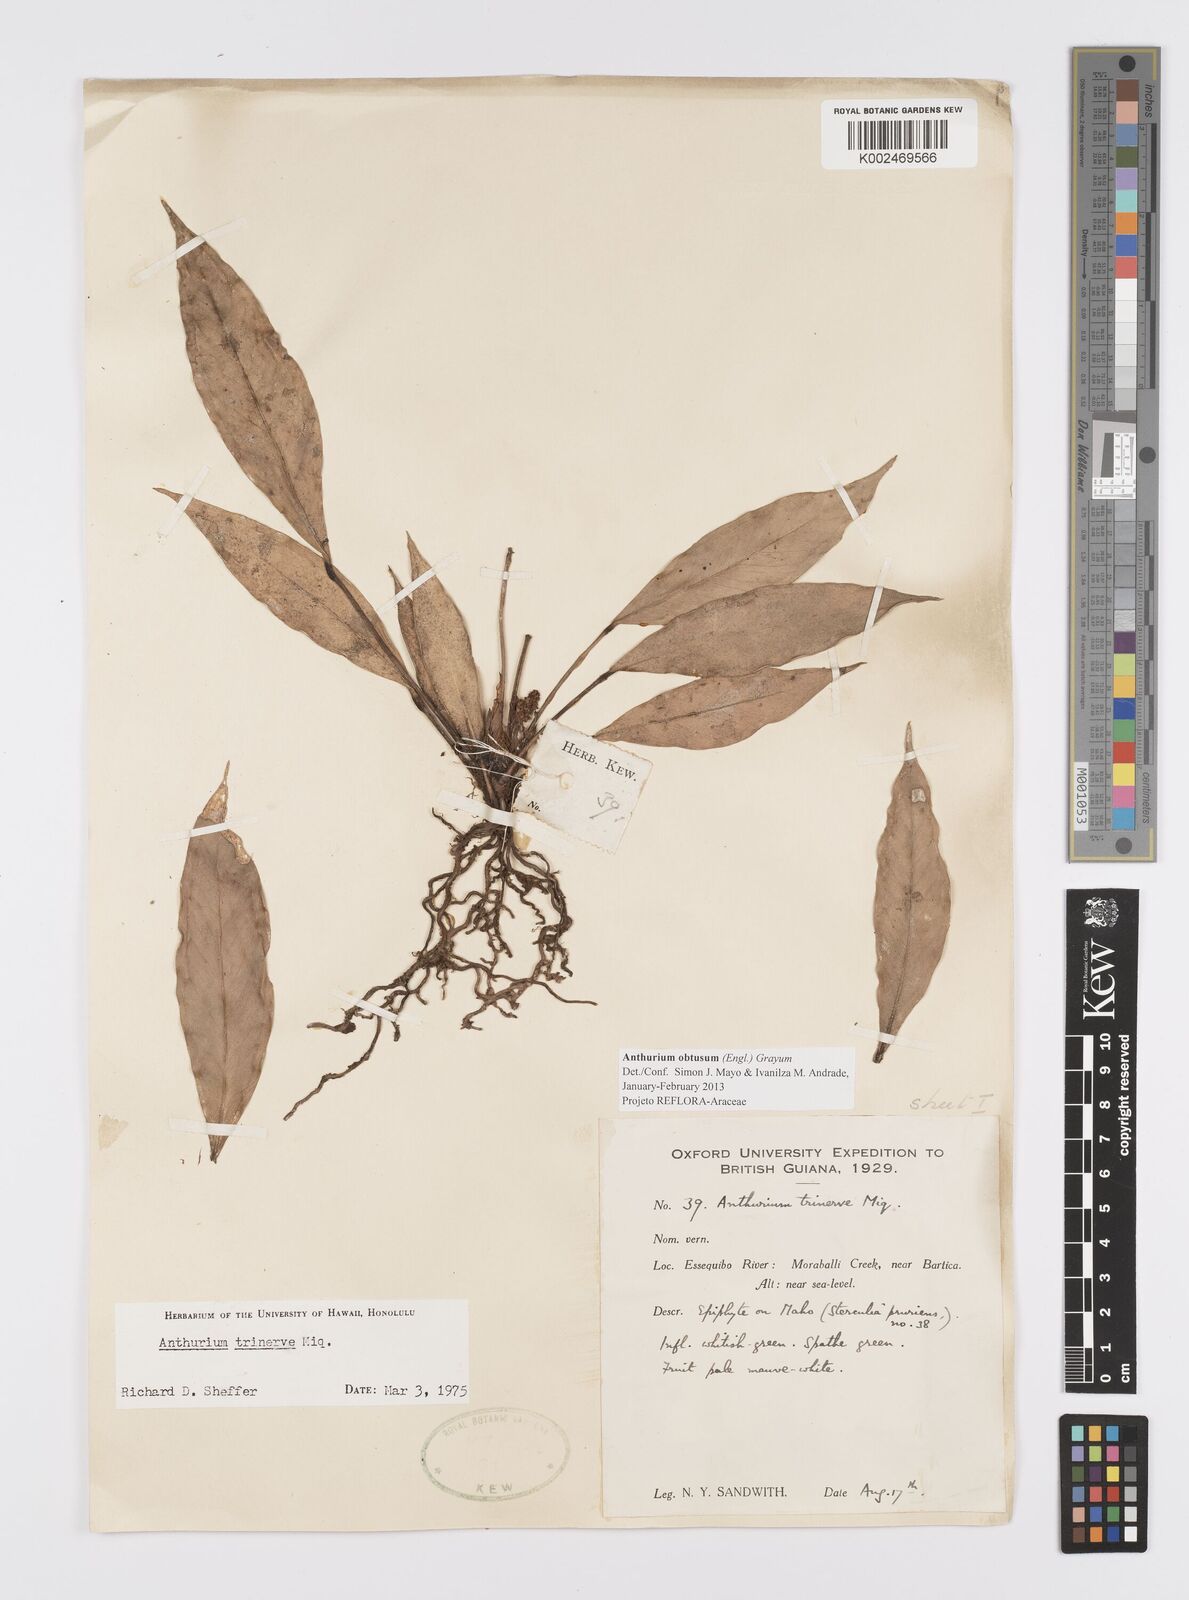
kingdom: Plantae
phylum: Tracheophyta
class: Liliopsida
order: Alismatales
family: Araceae
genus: Anthurium
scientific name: Anthurium obtusum
